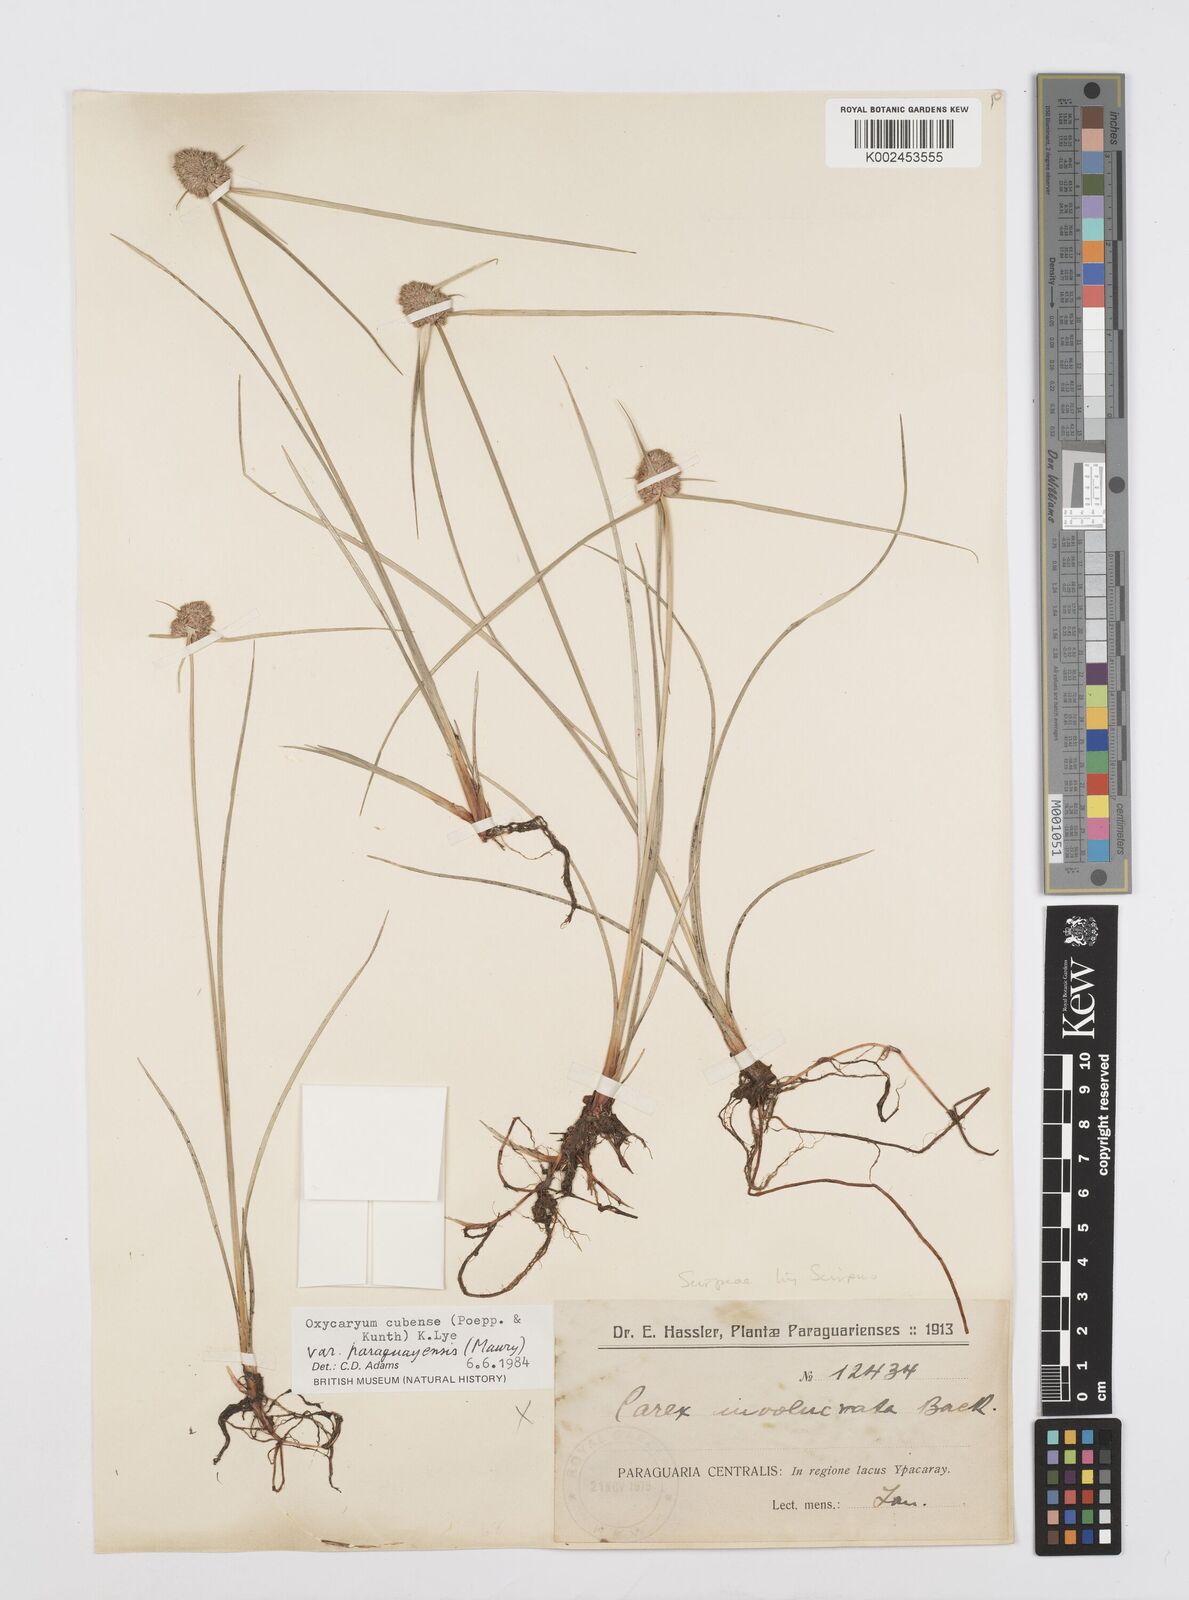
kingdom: Plantae
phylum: Tracheophyta
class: Liliopsida
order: Poales
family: Cyperaceae
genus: Cyperus
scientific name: Cyperus elegans
